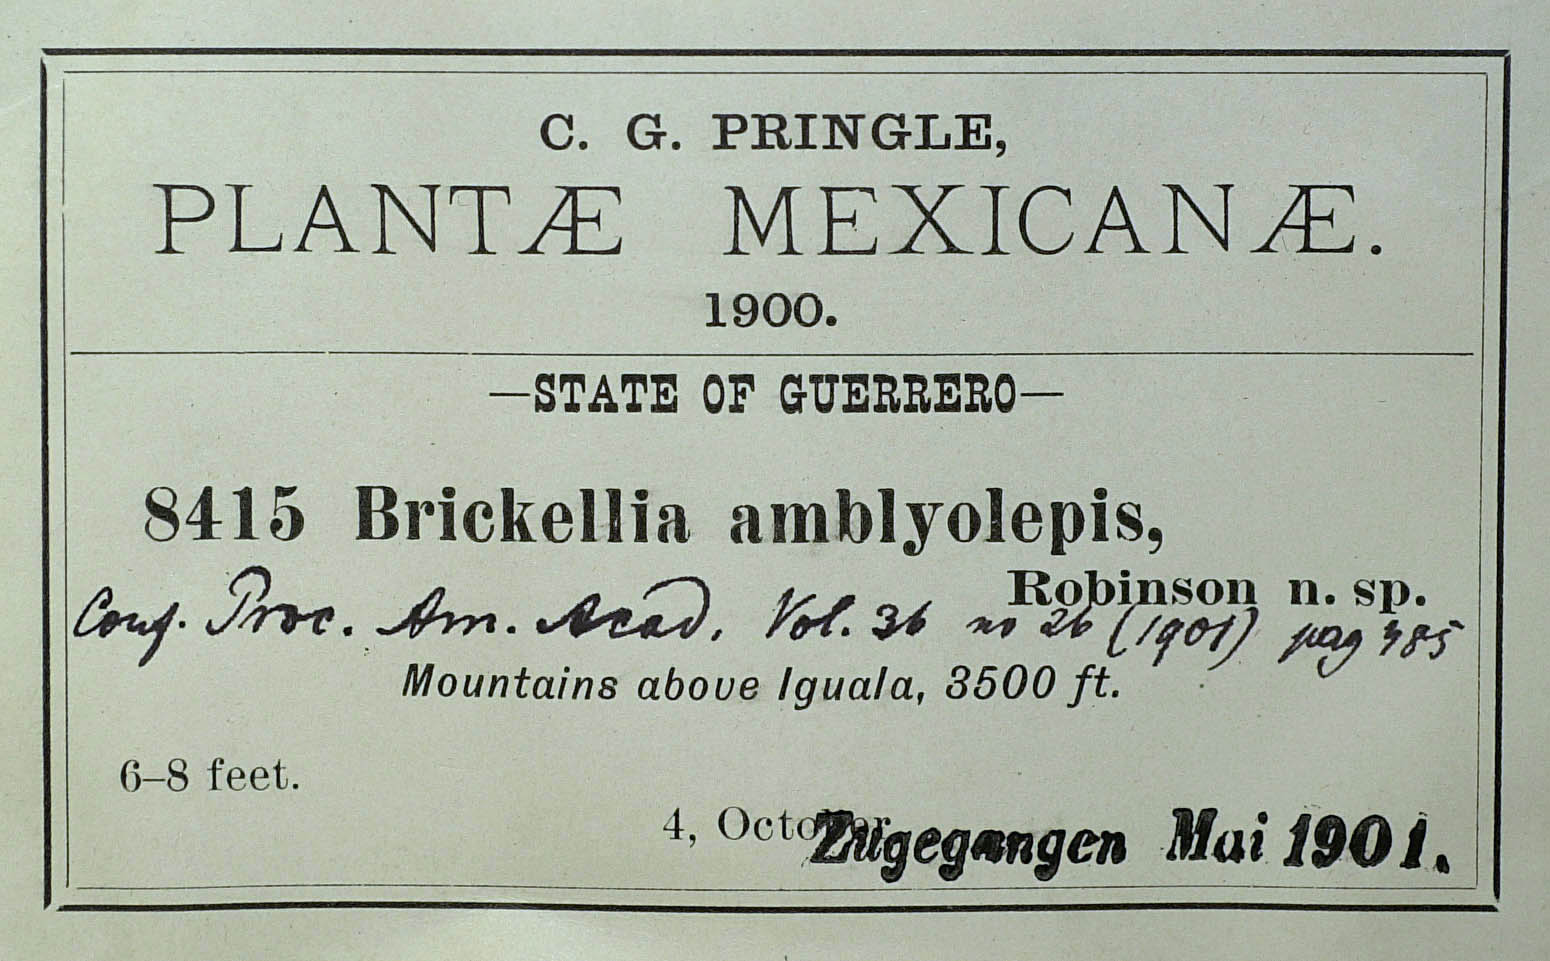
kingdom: Plantae
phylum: Tracheophyta
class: Magnoliopsida
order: Asterales
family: Asteraceae
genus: Steviopsis
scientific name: Steviopsis amblyolepis
